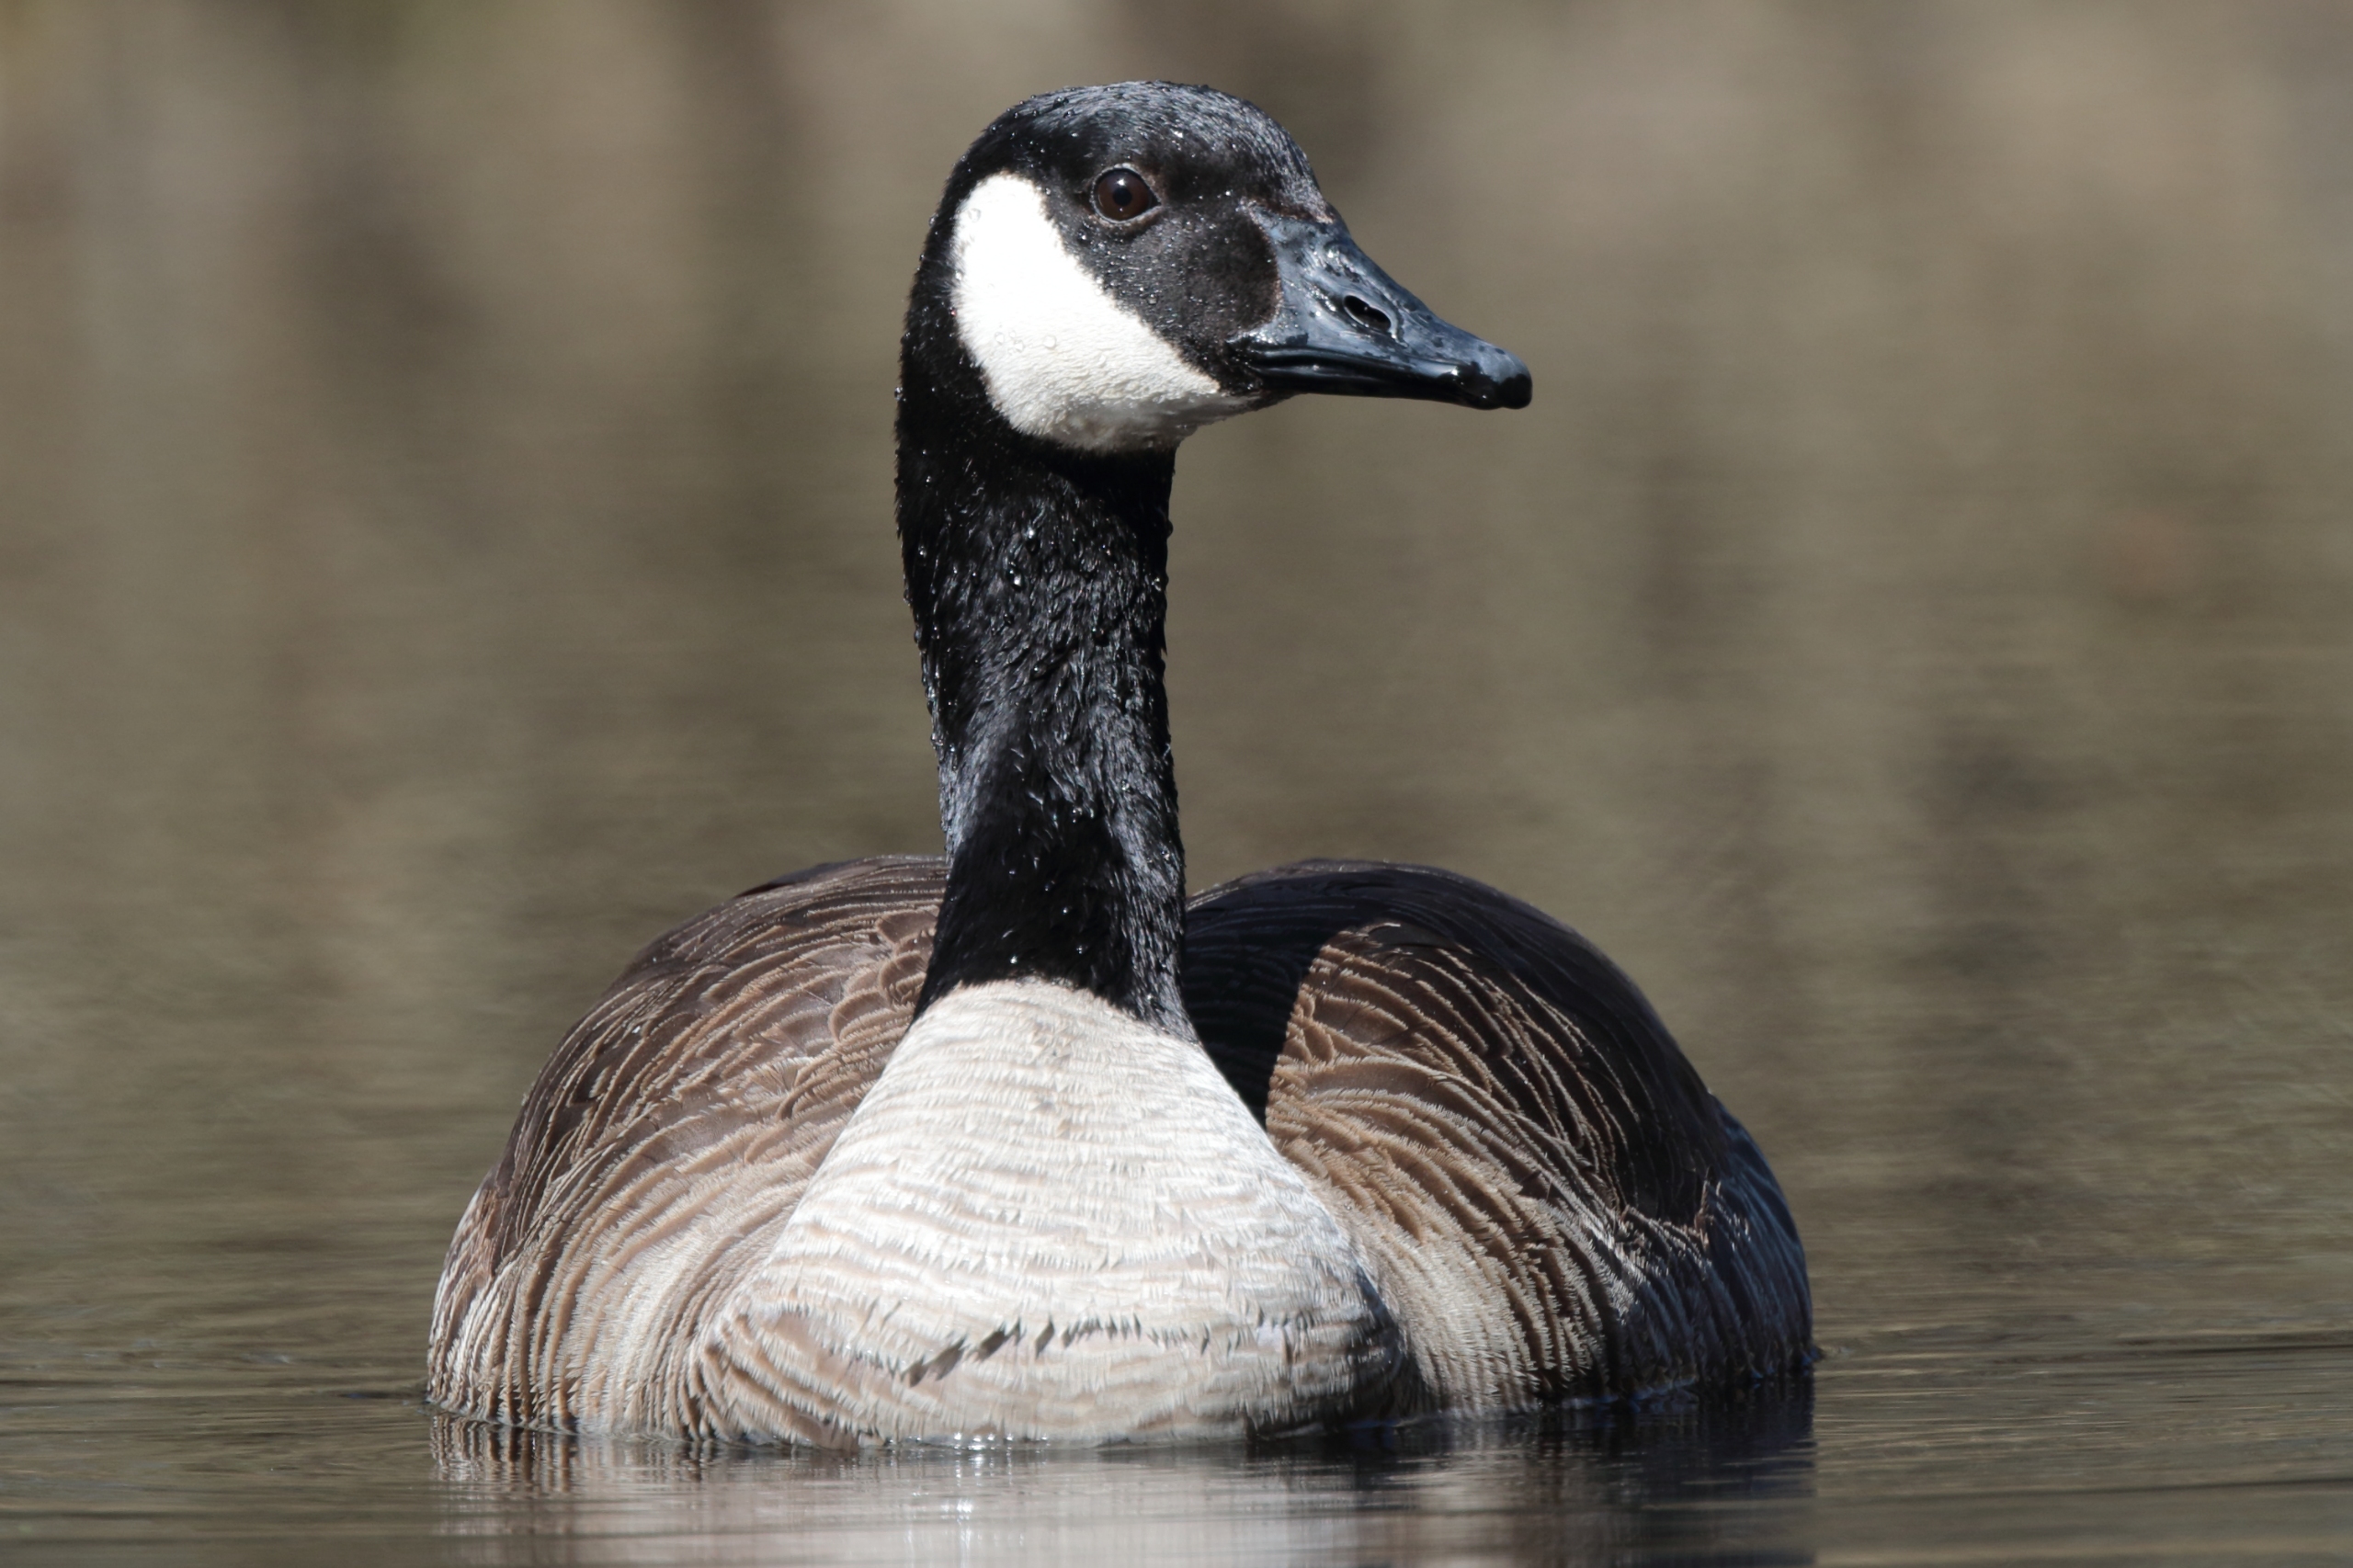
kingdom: Animalia
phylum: Chordata
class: Aves
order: Anseriformes
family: Anatidae
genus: Branta
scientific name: Branta canadensis
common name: Canadagås
